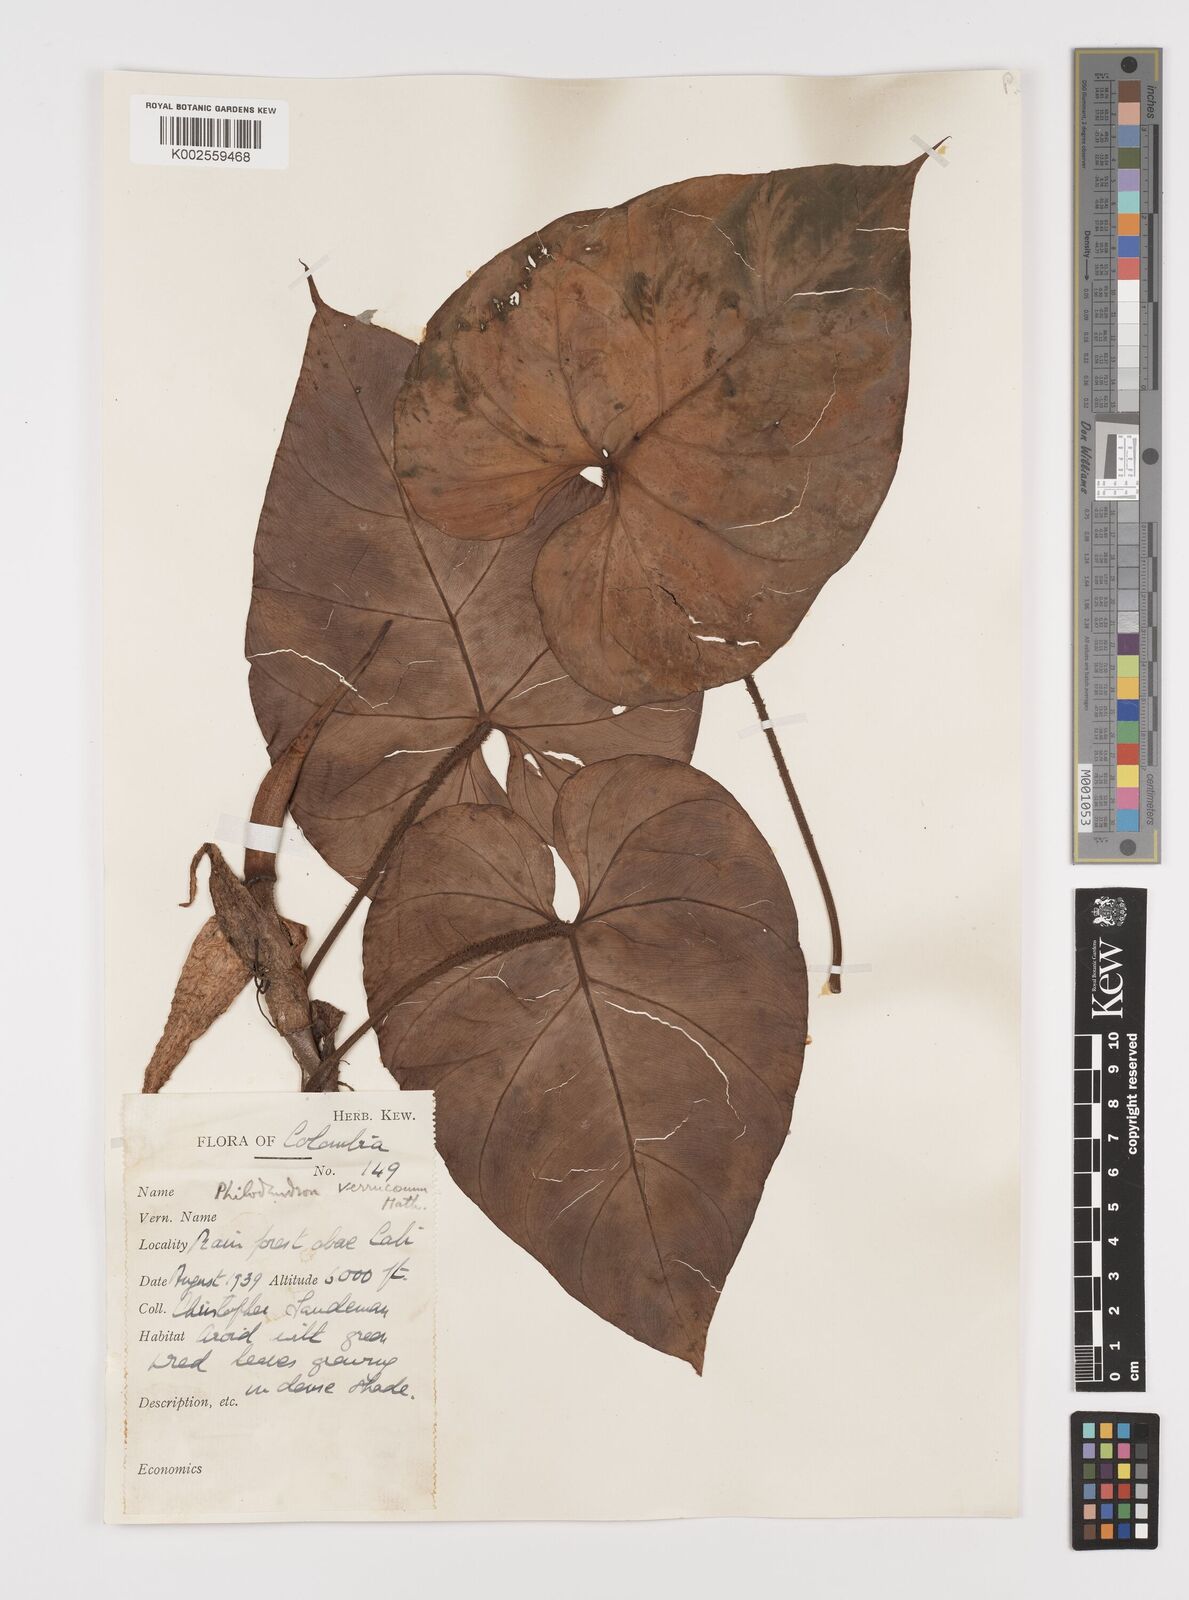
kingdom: Plantae
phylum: Tracheophyta
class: Liliopsida
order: Alismatales
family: Araceae
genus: Philodendron
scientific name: Philodendron verrucosum
